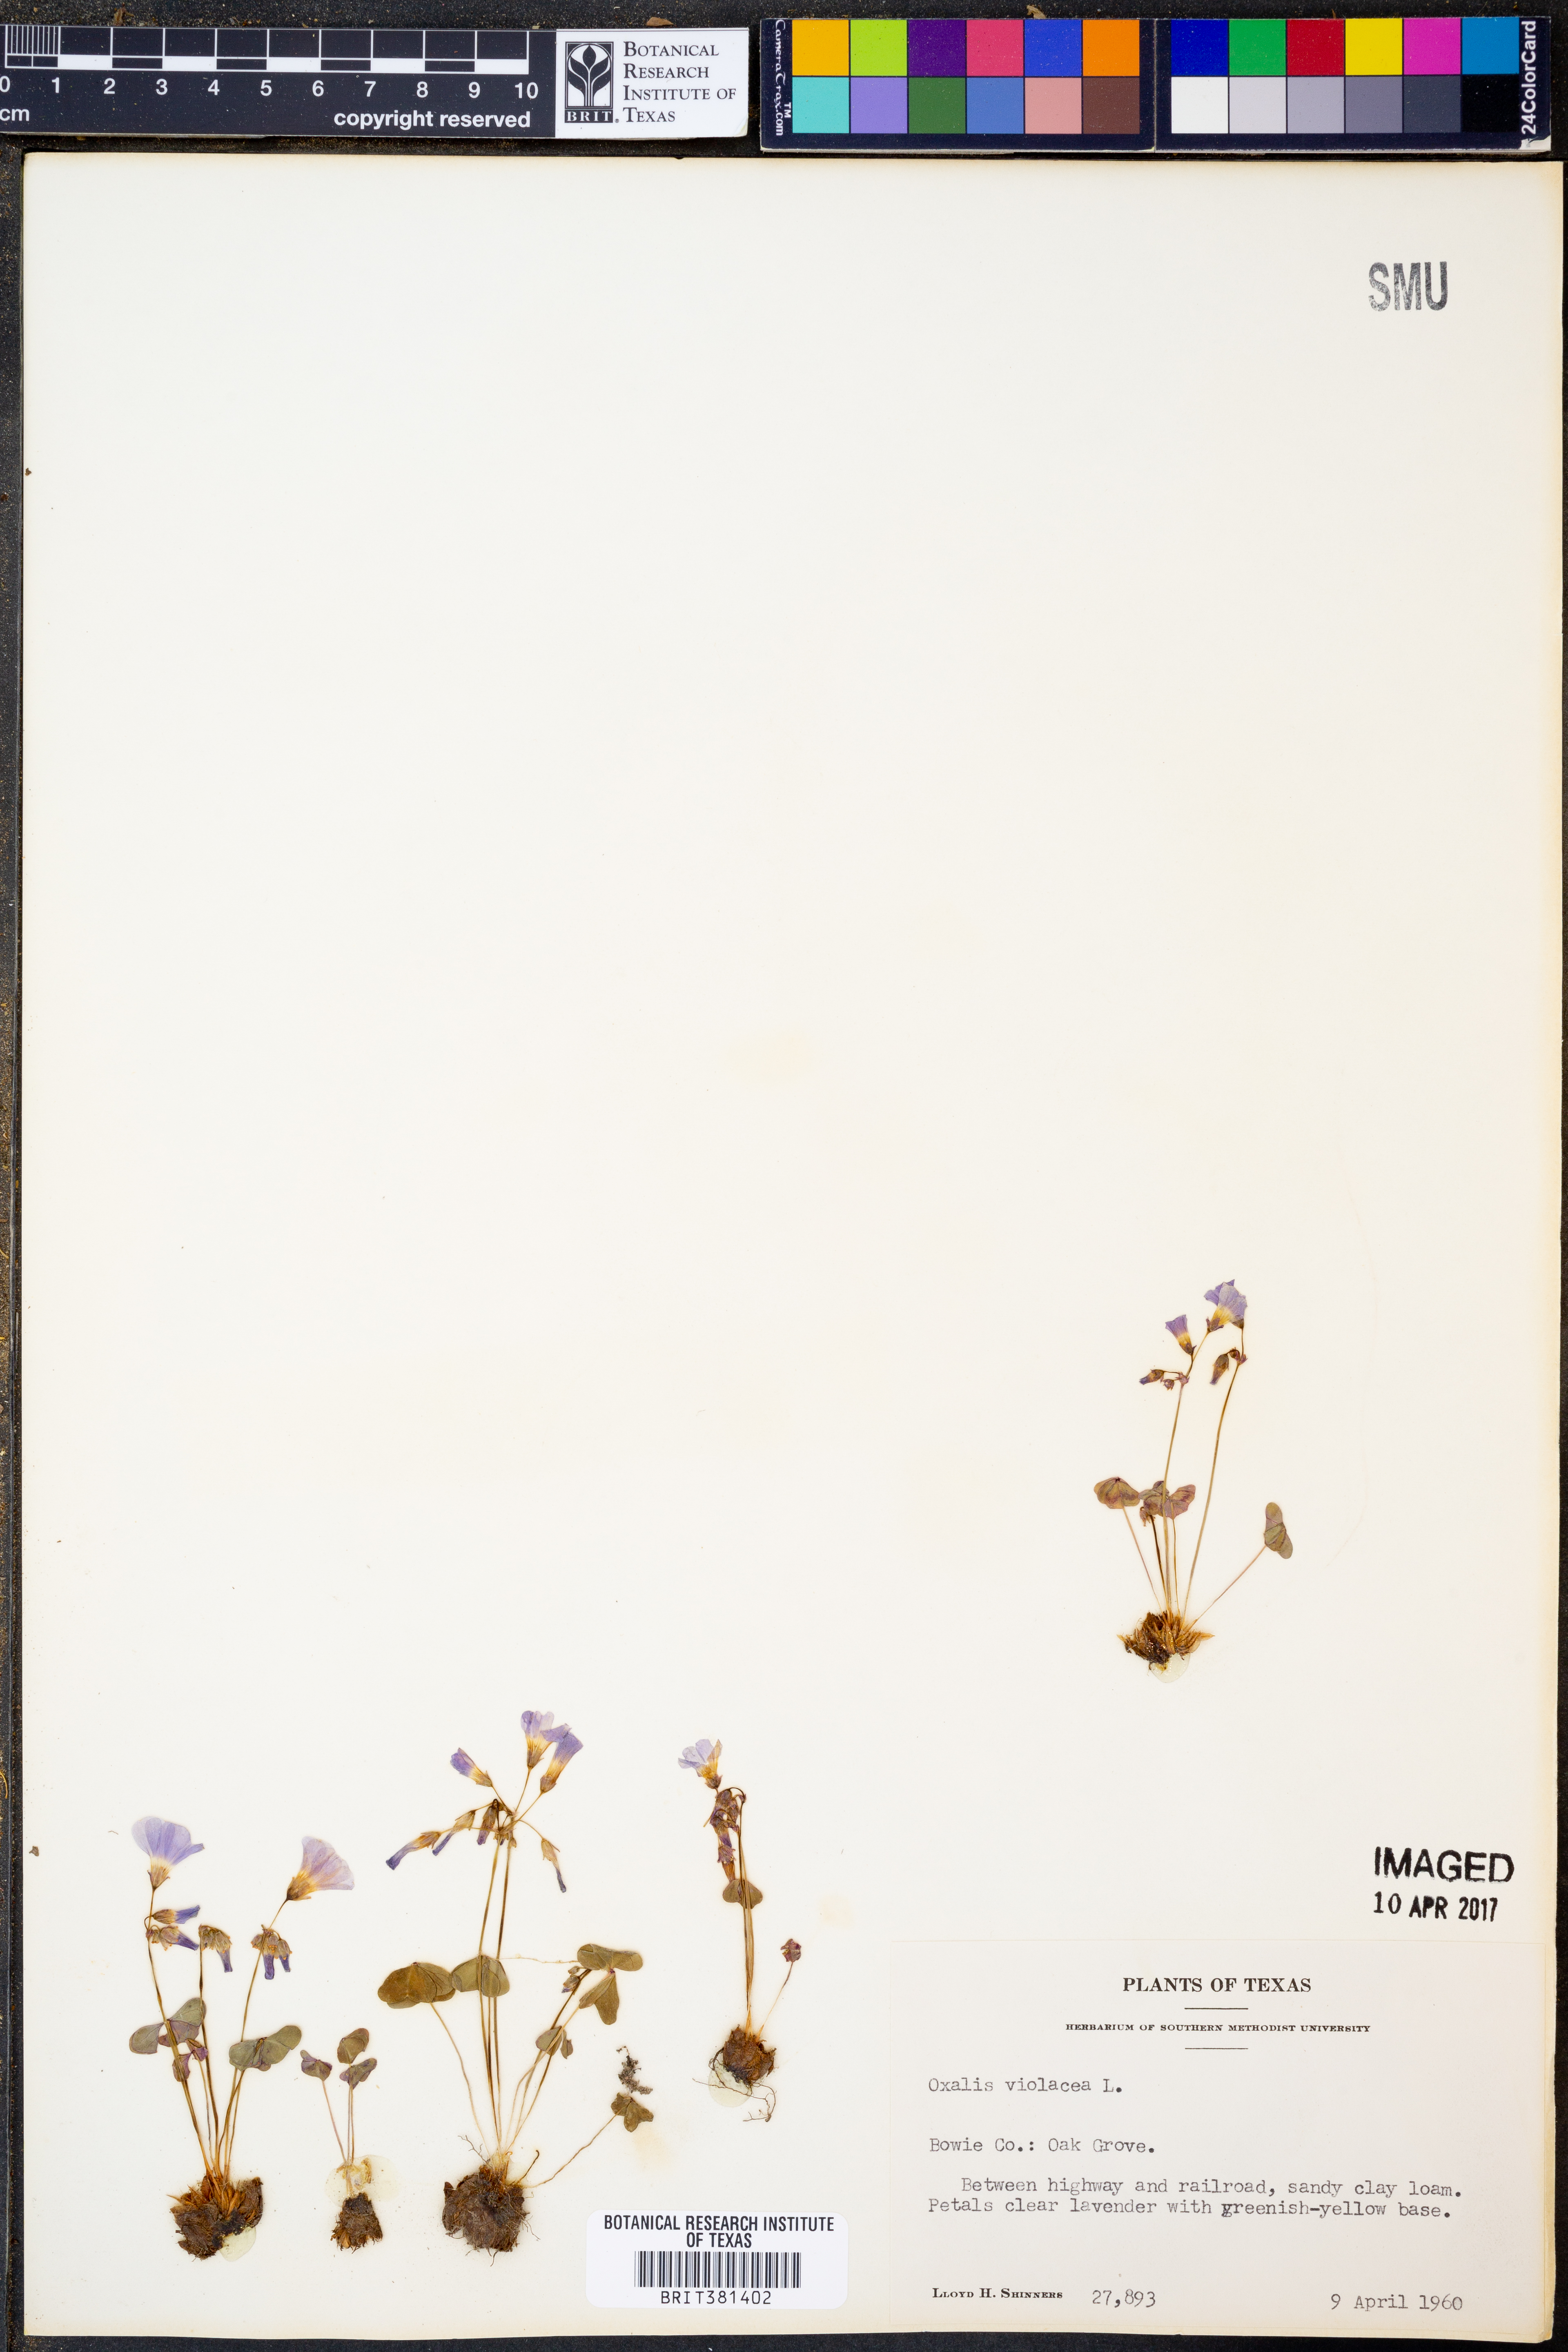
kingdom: Plantae
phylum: Tracheophyta
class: Magnoliopsida
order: Oxalidales
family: Oxalidaceae
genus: Oxalis
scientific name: Oxalis violacea
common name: Violet wood-sorrel
